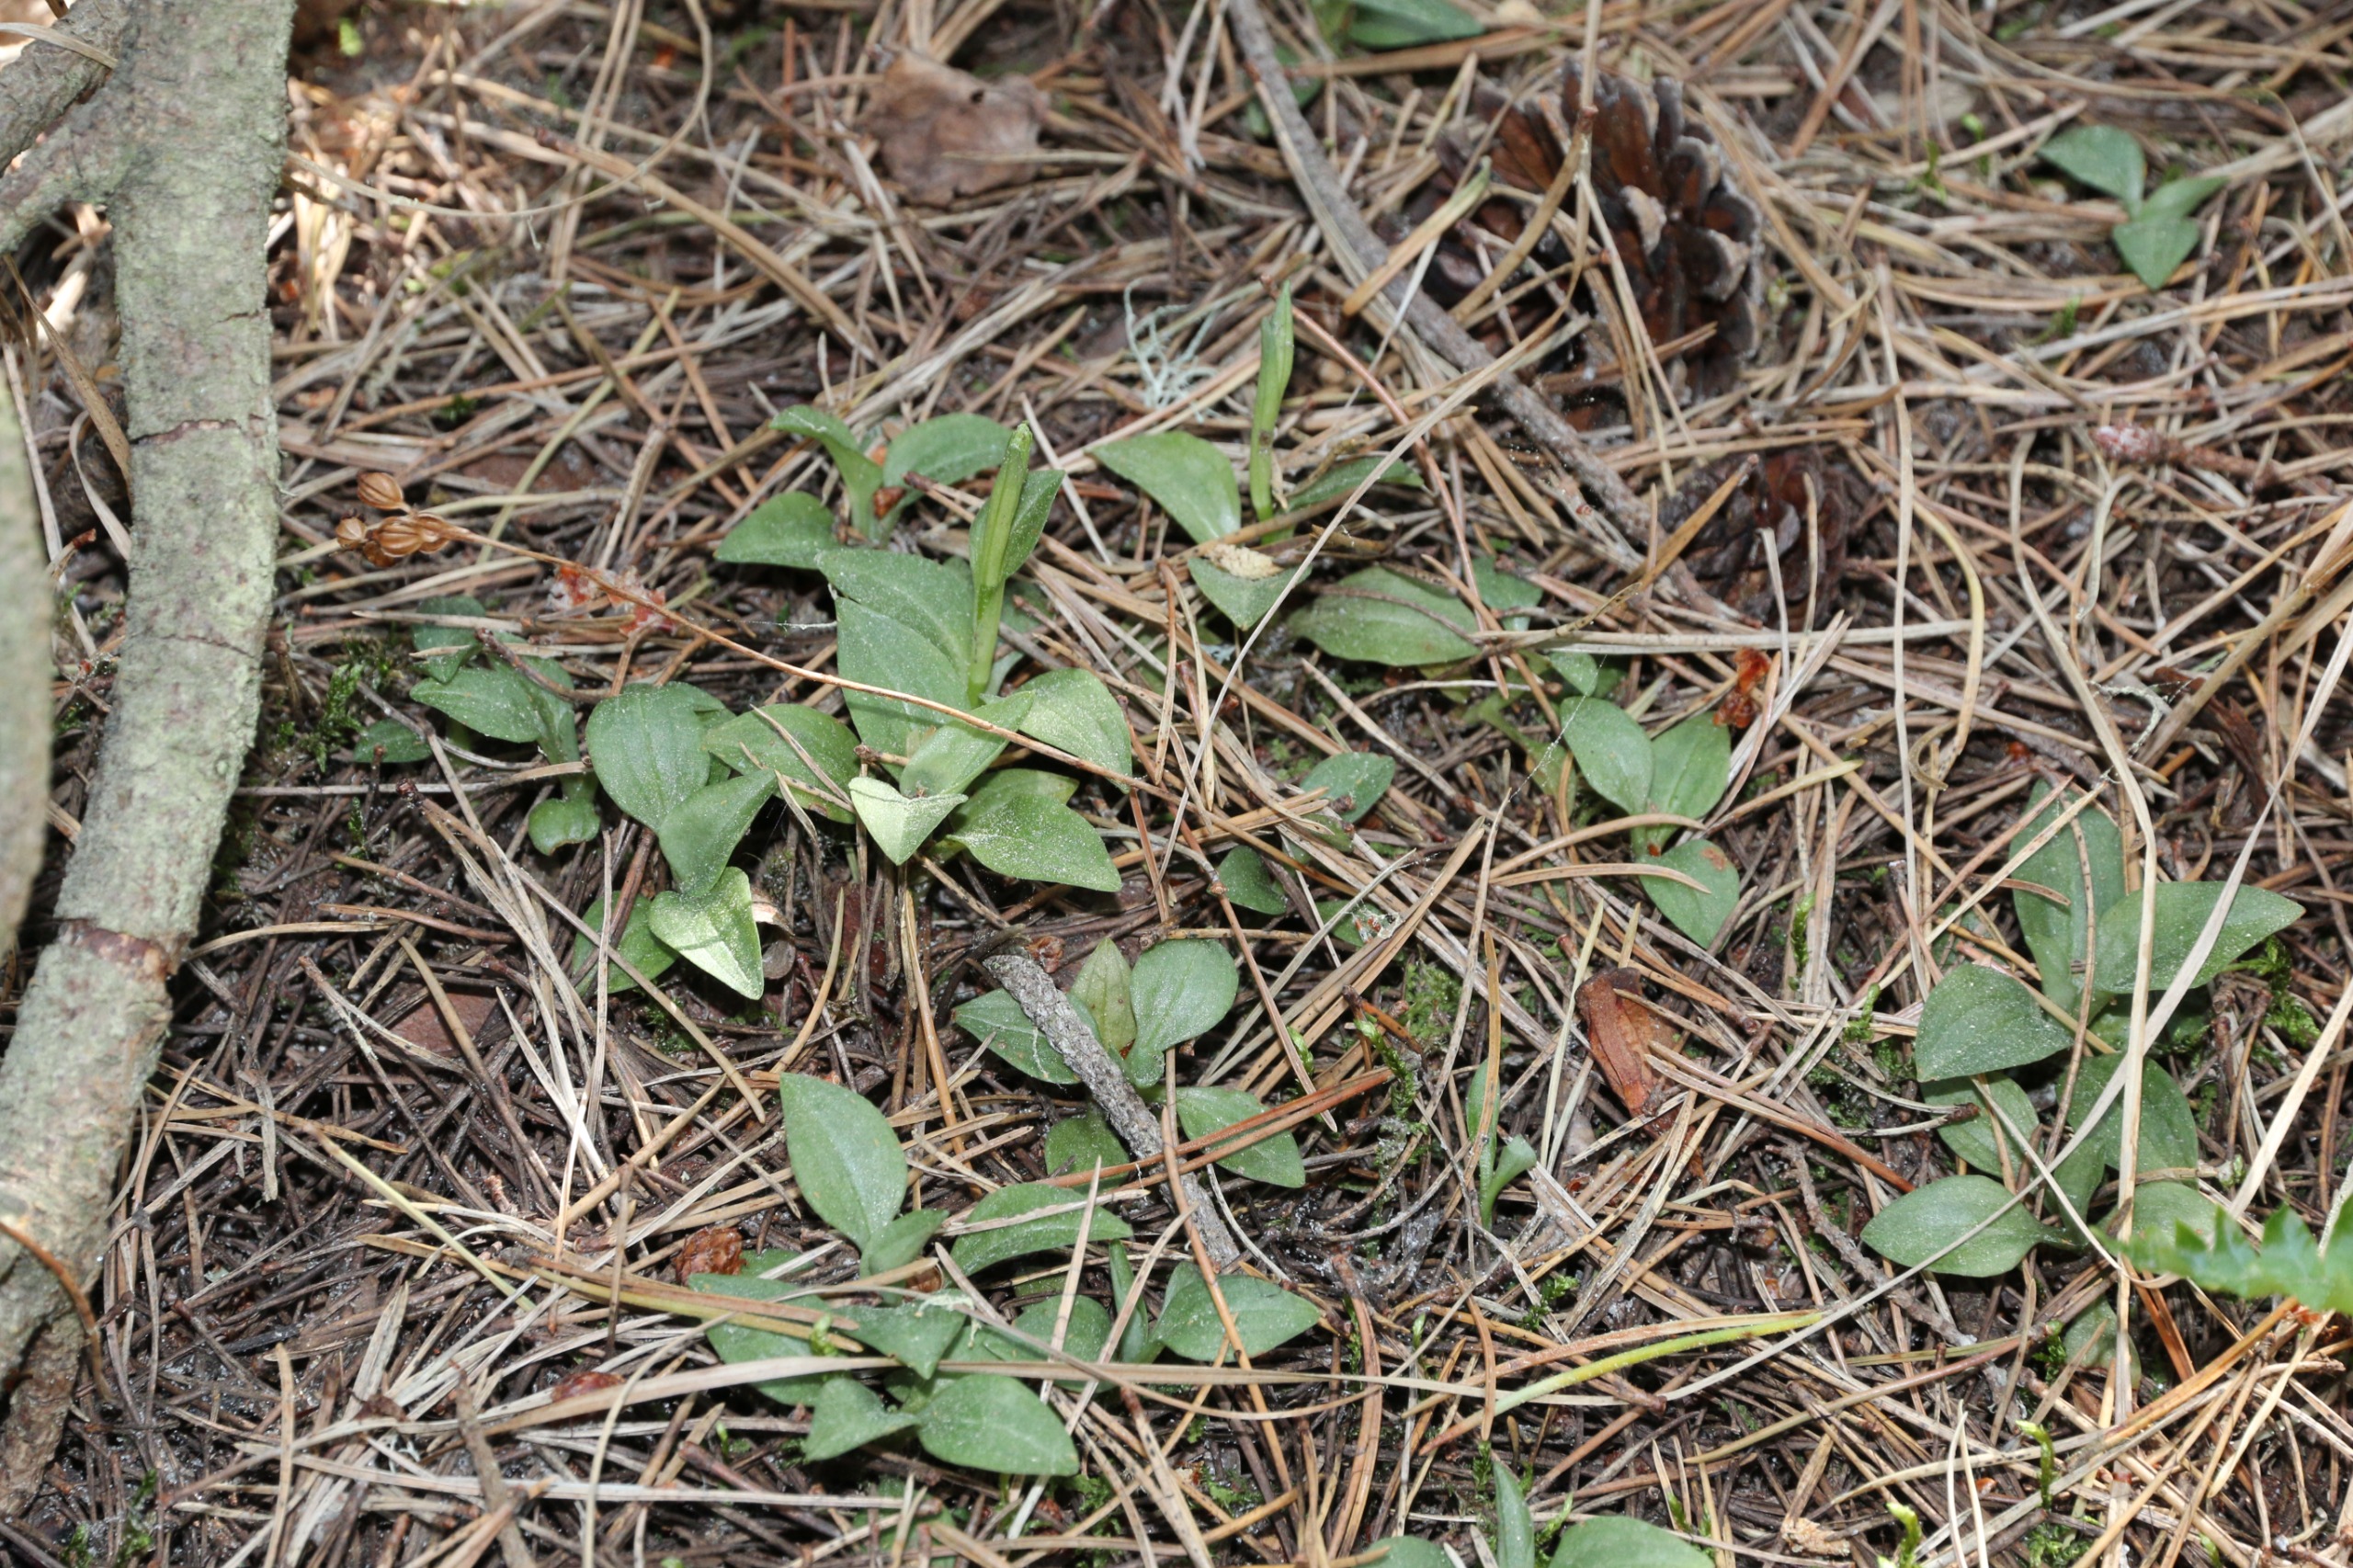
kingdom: Plantae
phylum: Tracheophyta
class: Liliopsida
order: Asparagales
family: Orchidaceae
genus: Goodyera
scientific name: Goodyera repens
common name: Knærod
